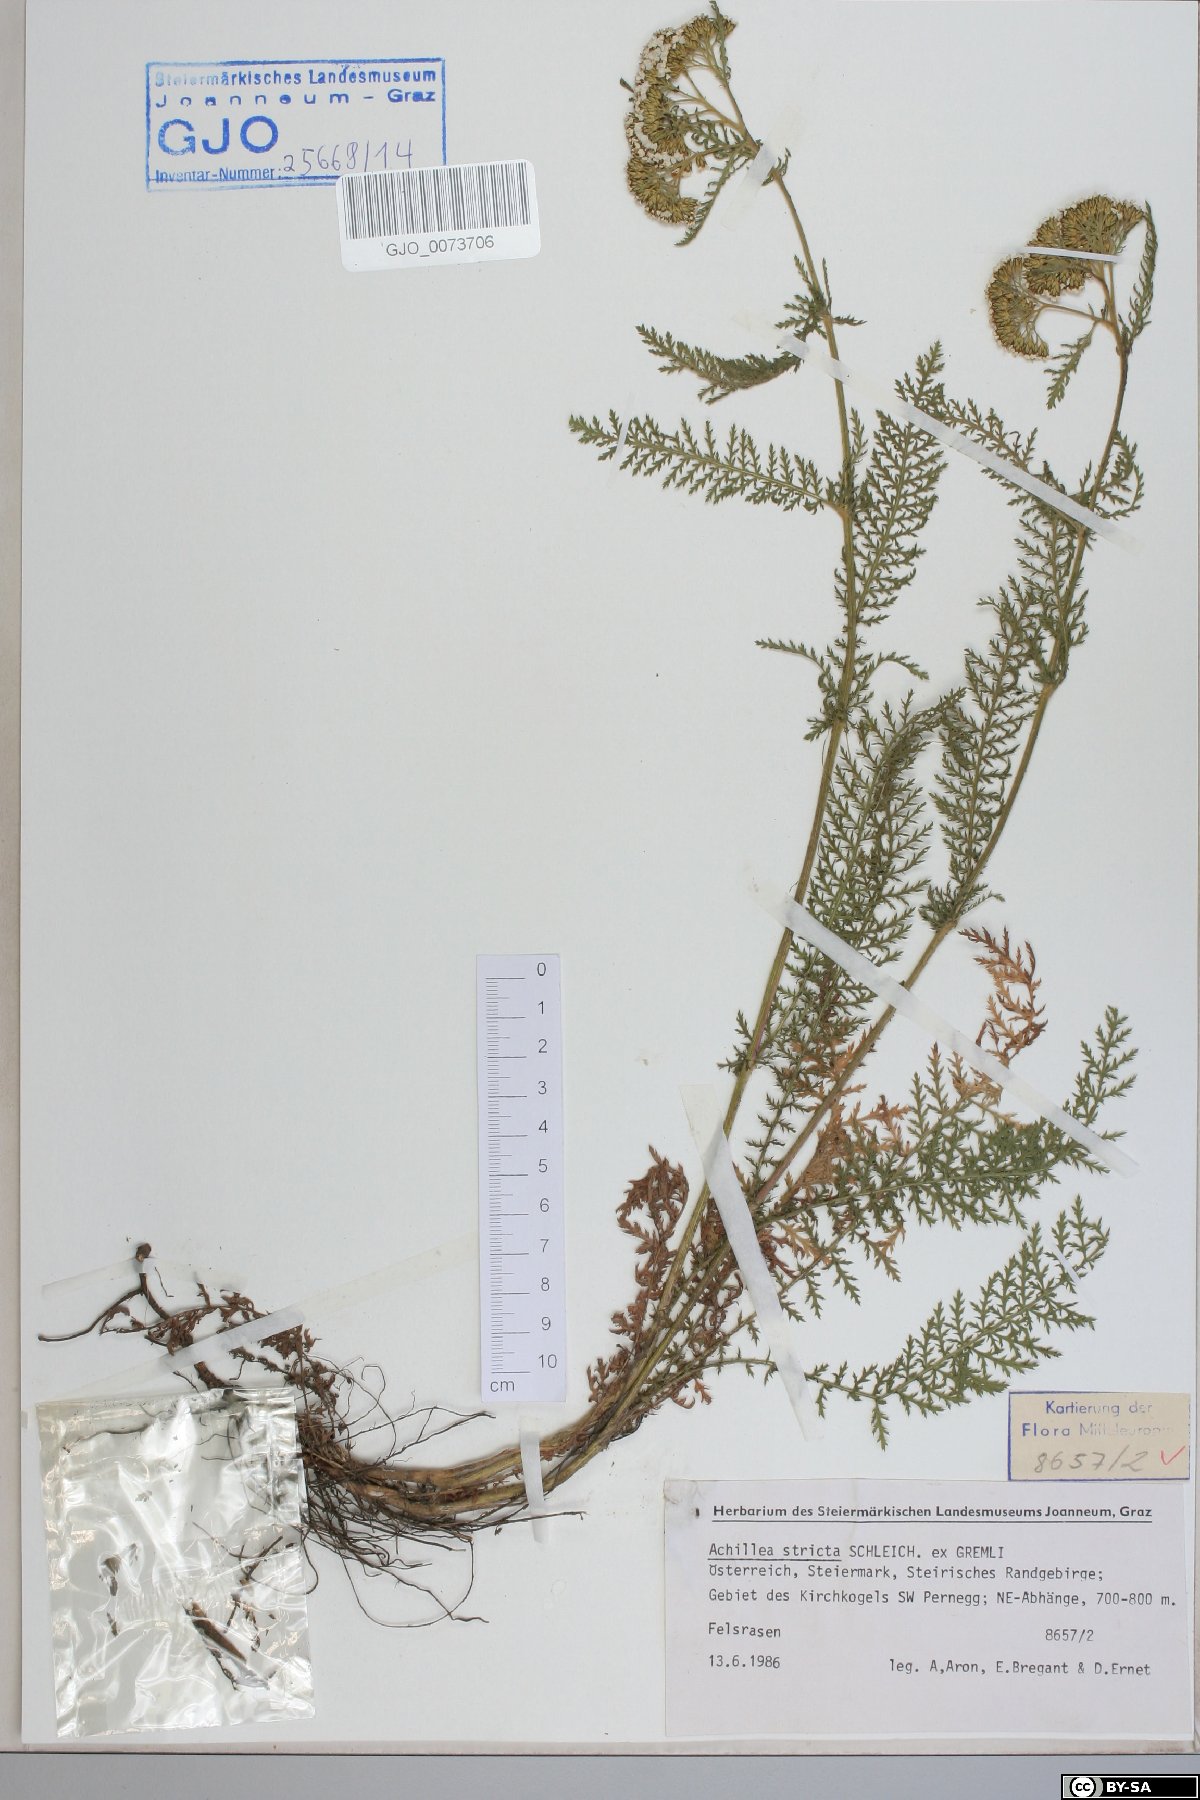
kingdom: Plantae
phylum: Tracheophyta
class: Magnoliopsida
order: Asterales
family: Asteraceae
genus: Achillea
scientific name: Achillea distans
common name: Tall yarrow
